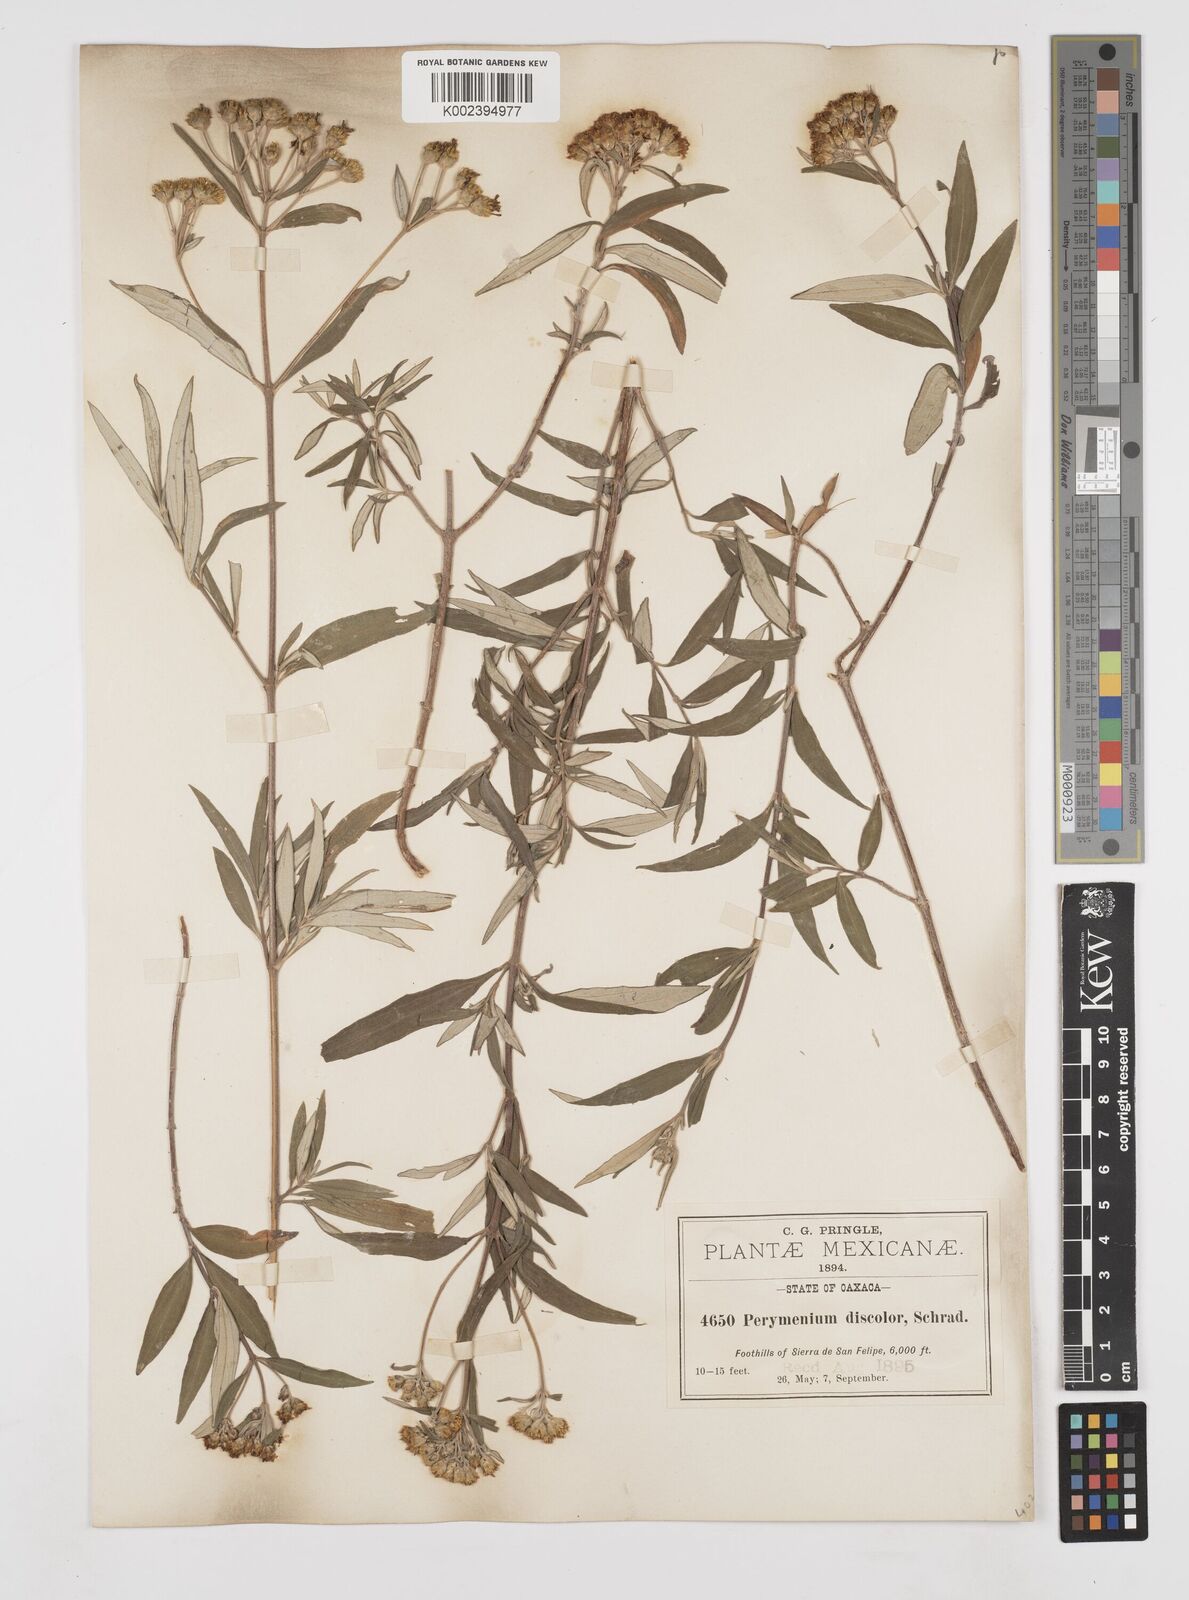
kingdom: Plantae
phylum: Tracheophyta
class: Magnoliopsida
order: Asterales
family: Asteraceae
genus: Perymenium
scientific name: Perymenium discolor
